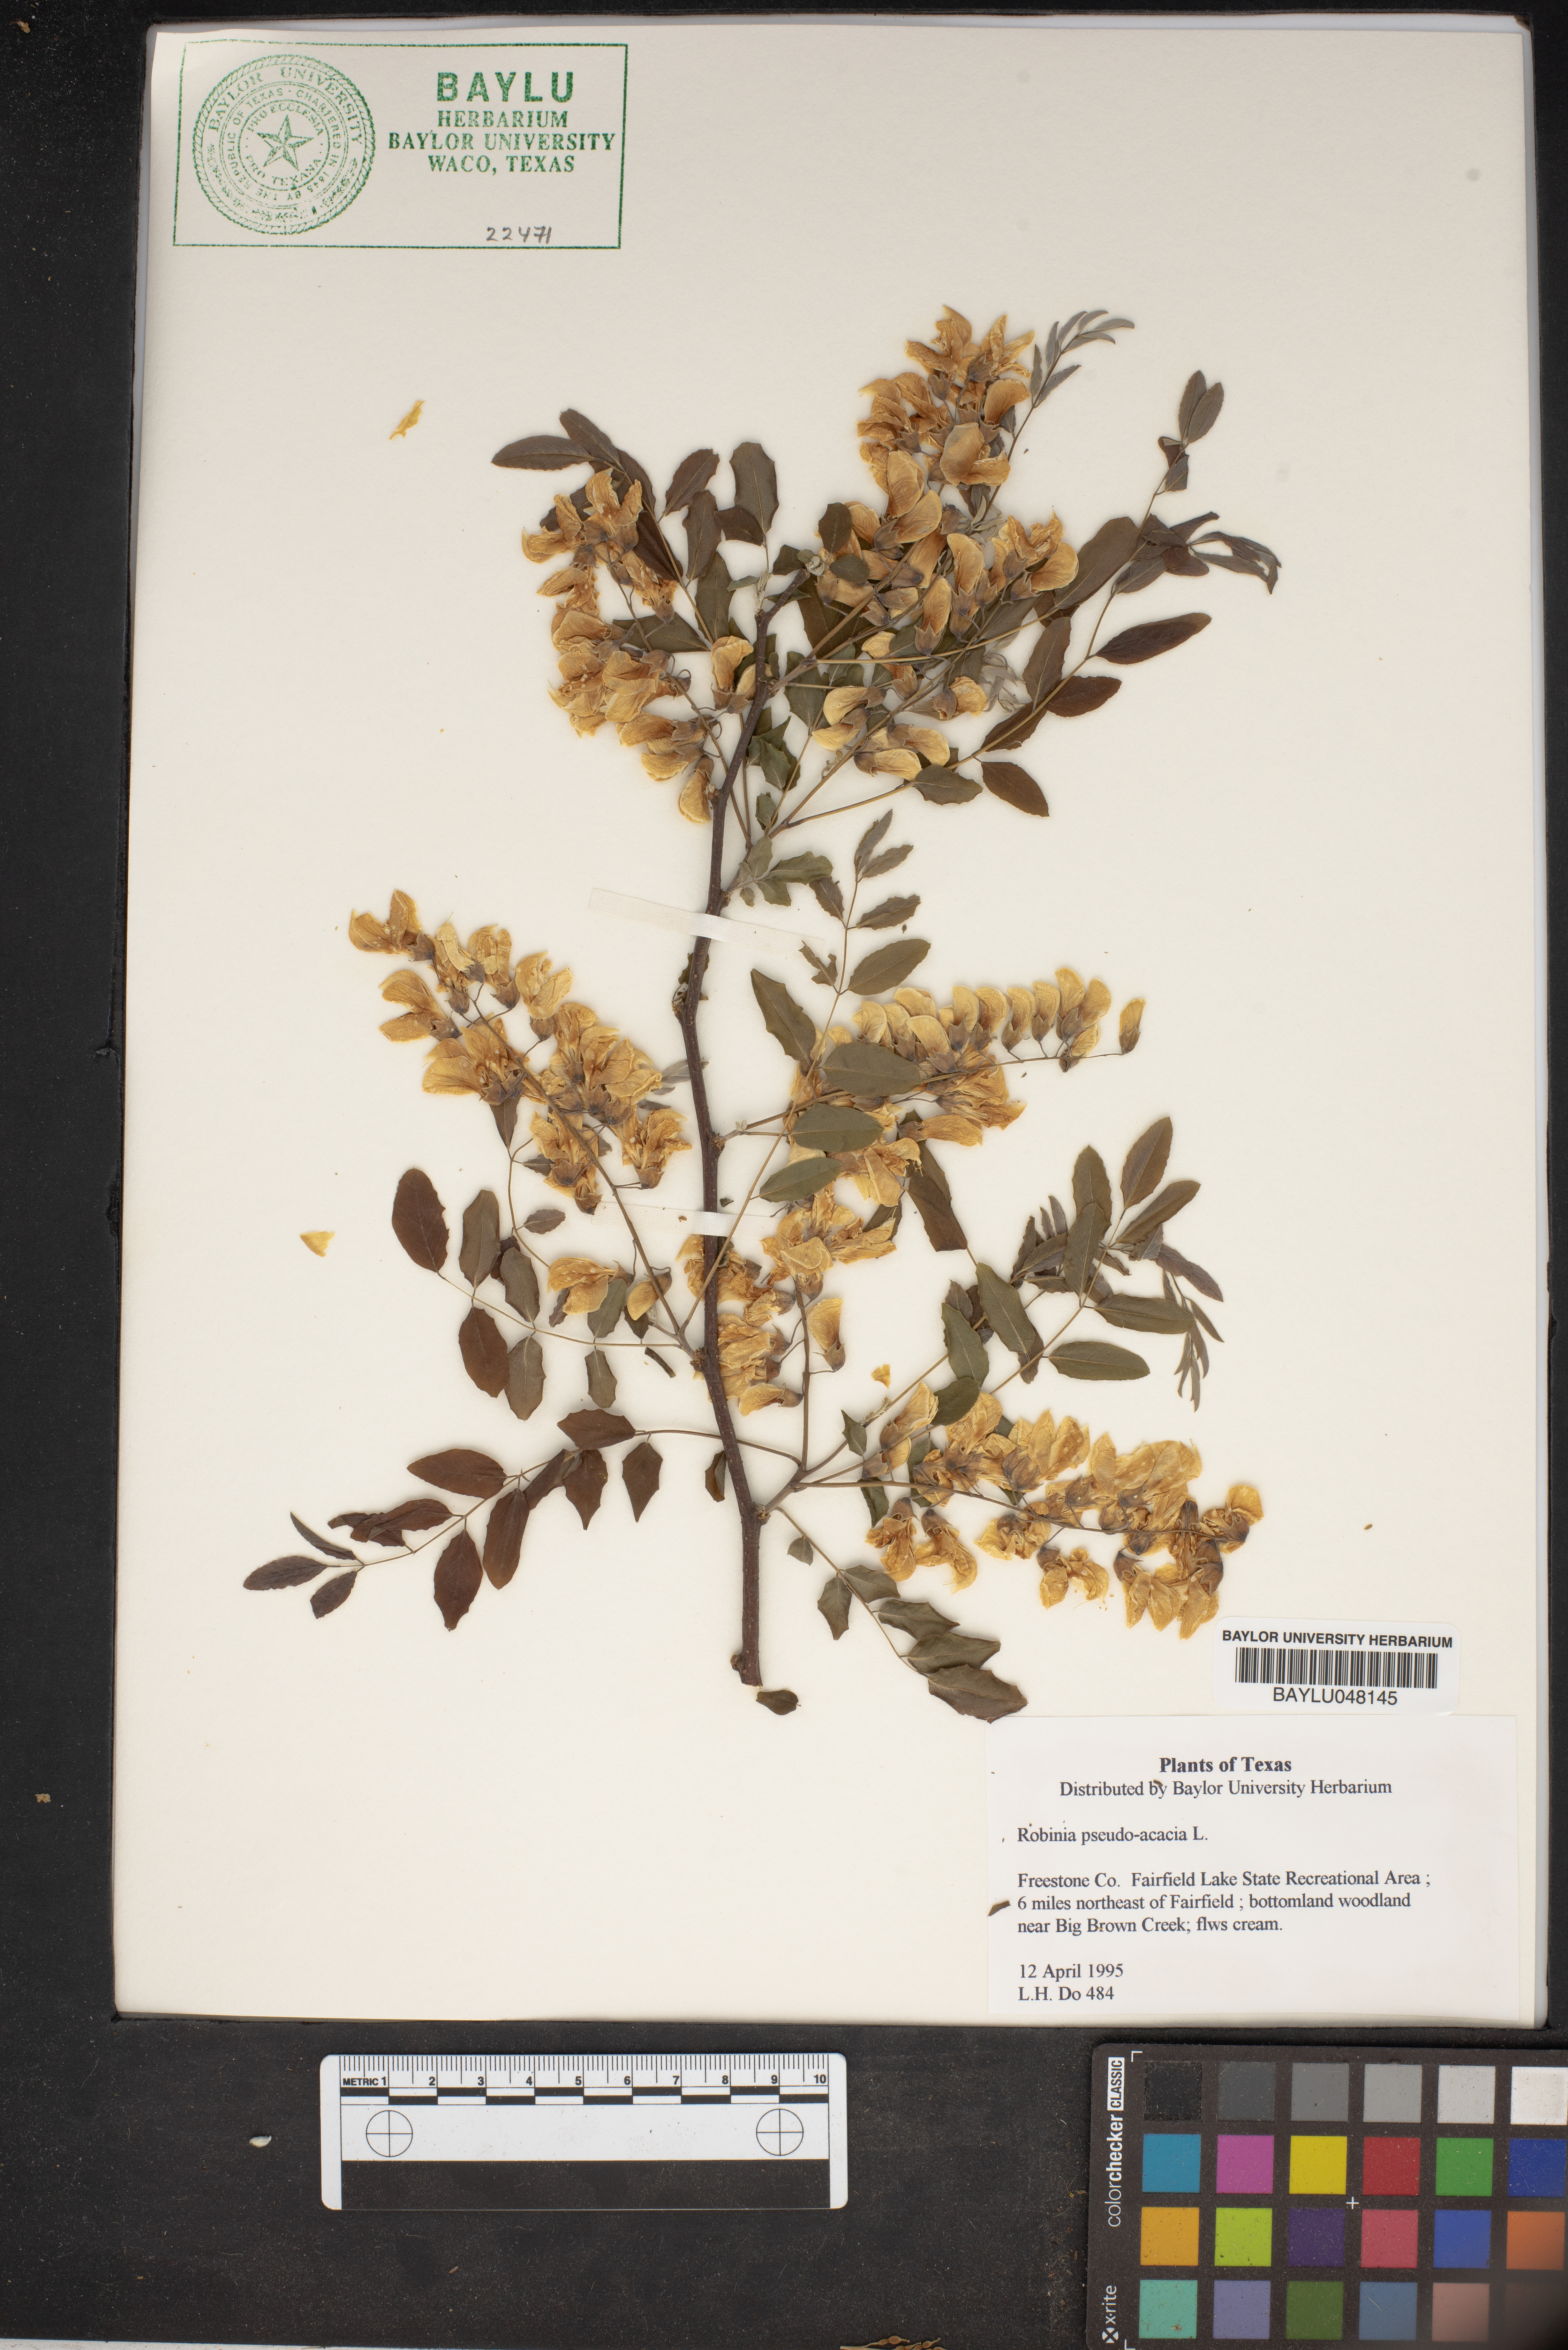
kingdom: Plantae
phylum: Tracheophyta
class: Magnoliopsida
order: Fabales
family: Fabaceae
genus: Robinia
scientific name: Robinia pseudoacacia
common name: Black locust
